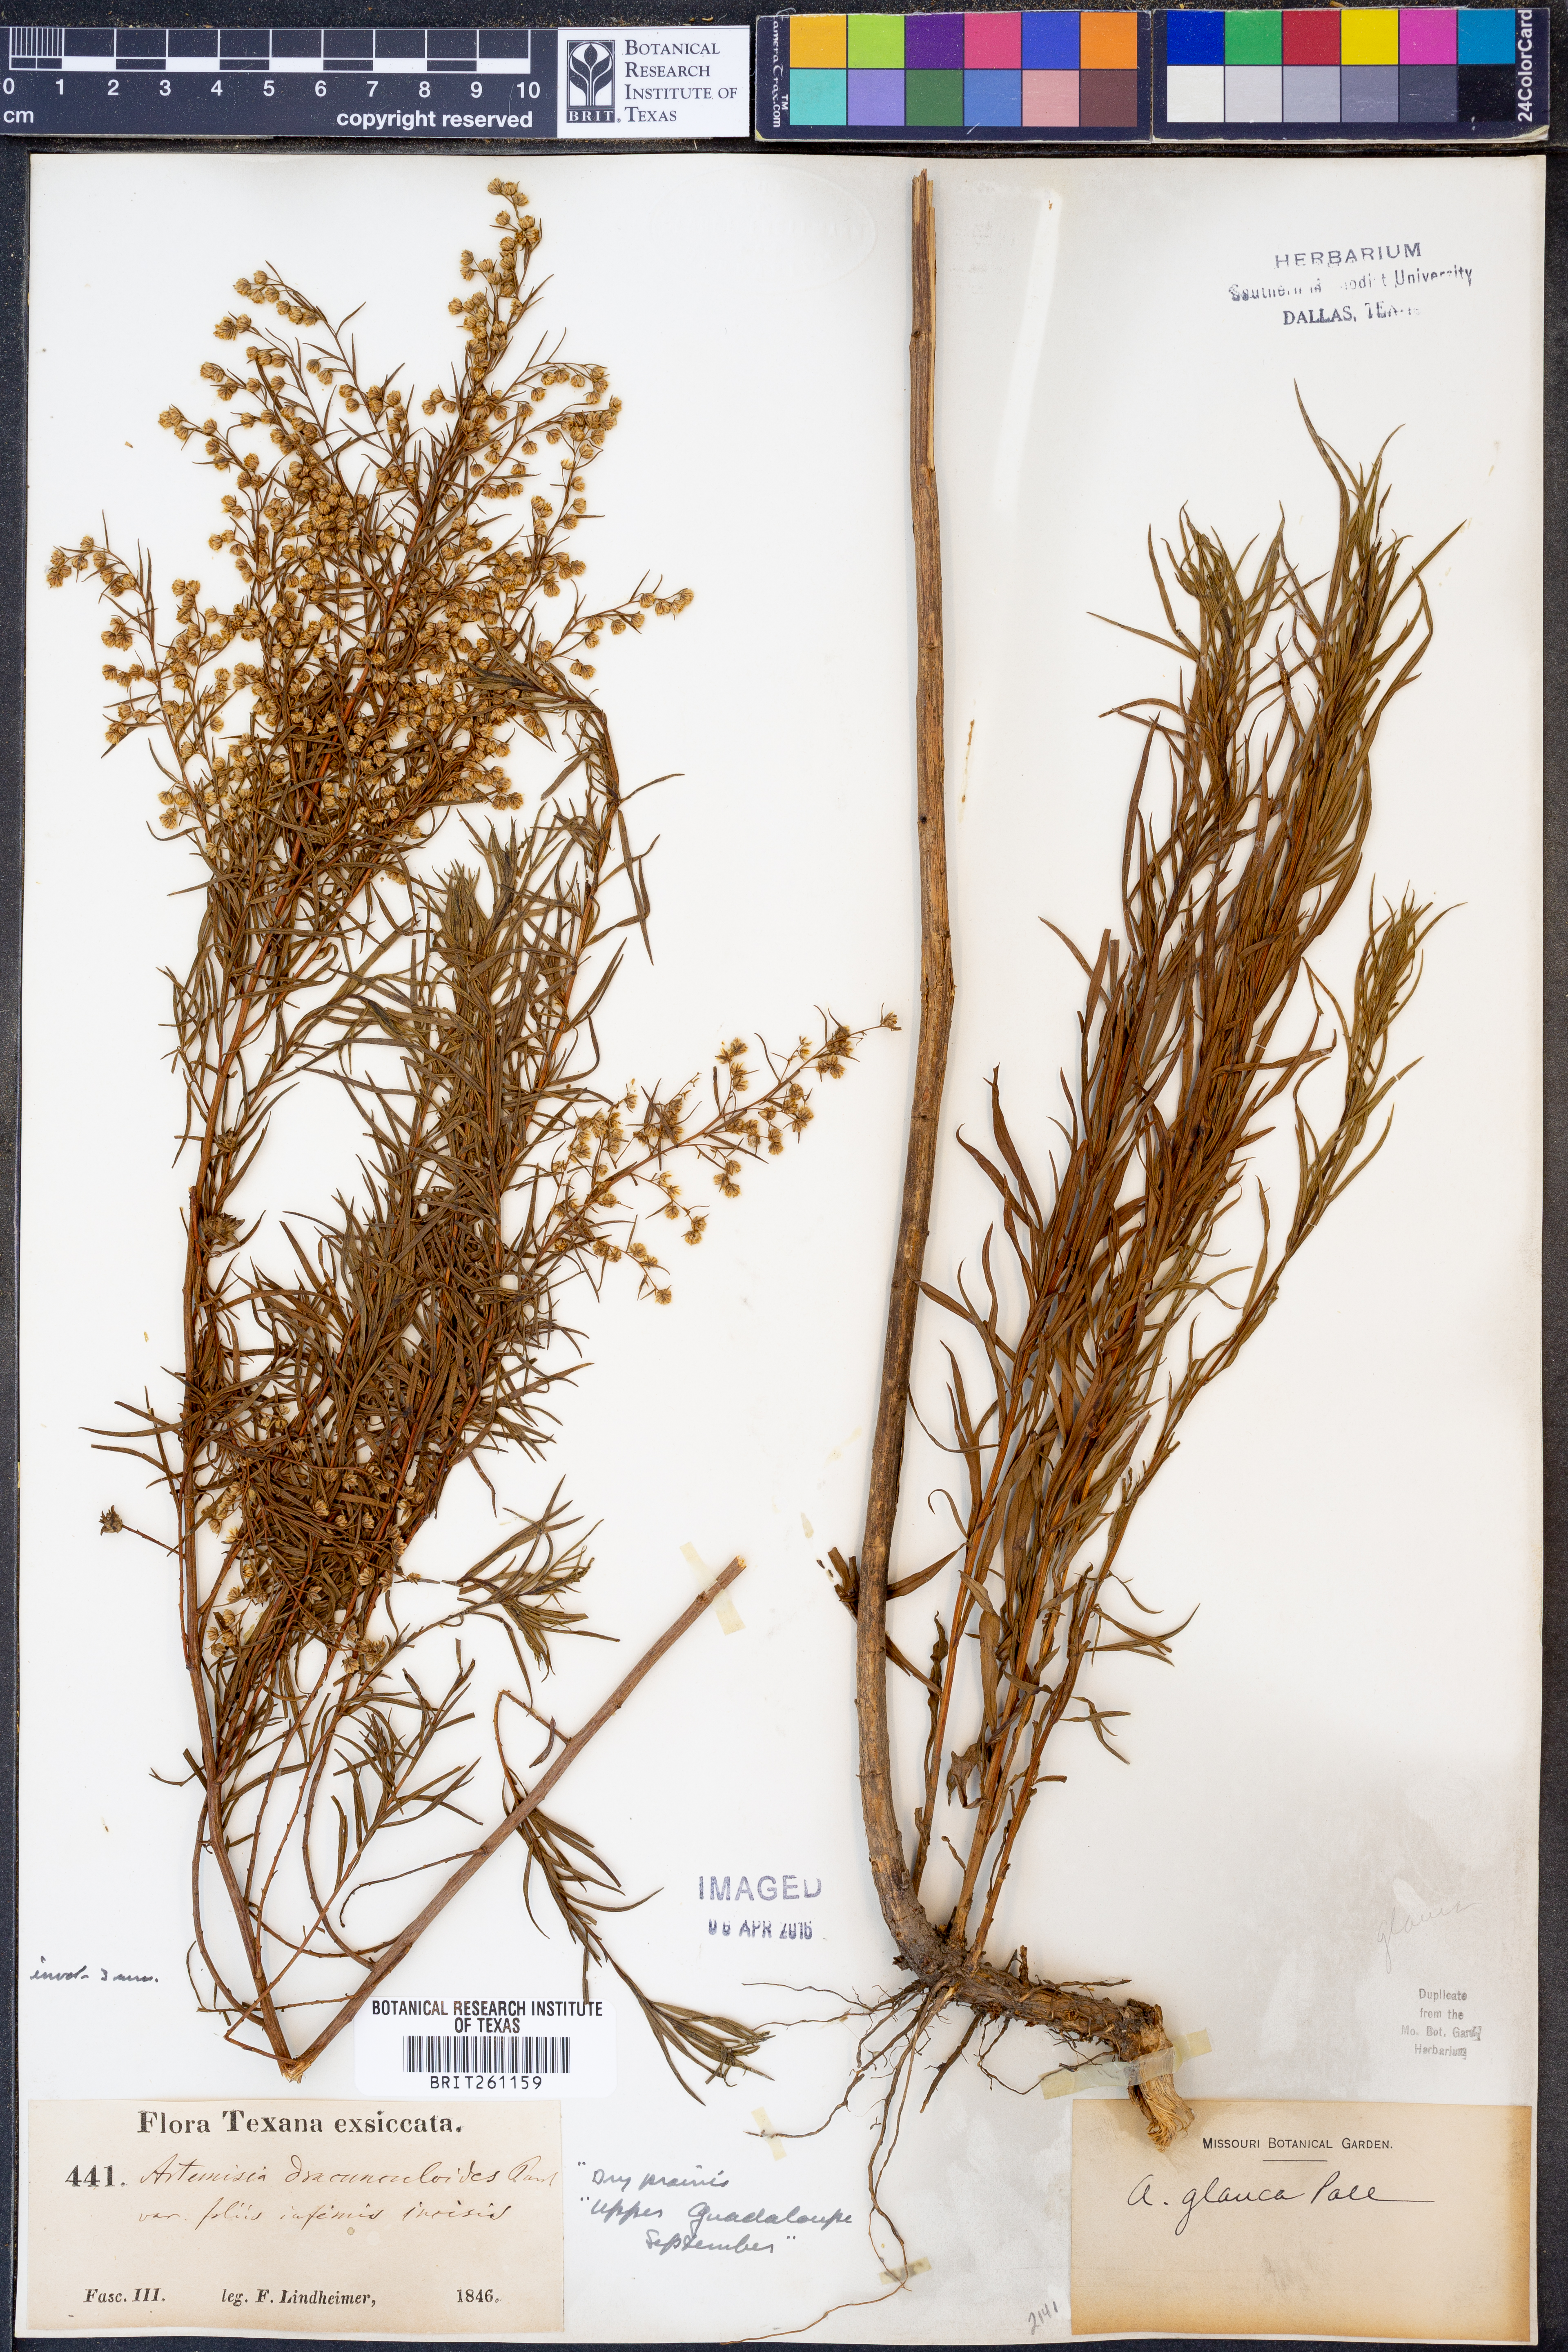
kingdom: Plantae
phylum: Tracheophyta
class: Magnoliopsida
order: Asterales
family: Asteraceae
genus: Artemisia
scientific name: Artemisia glauca
